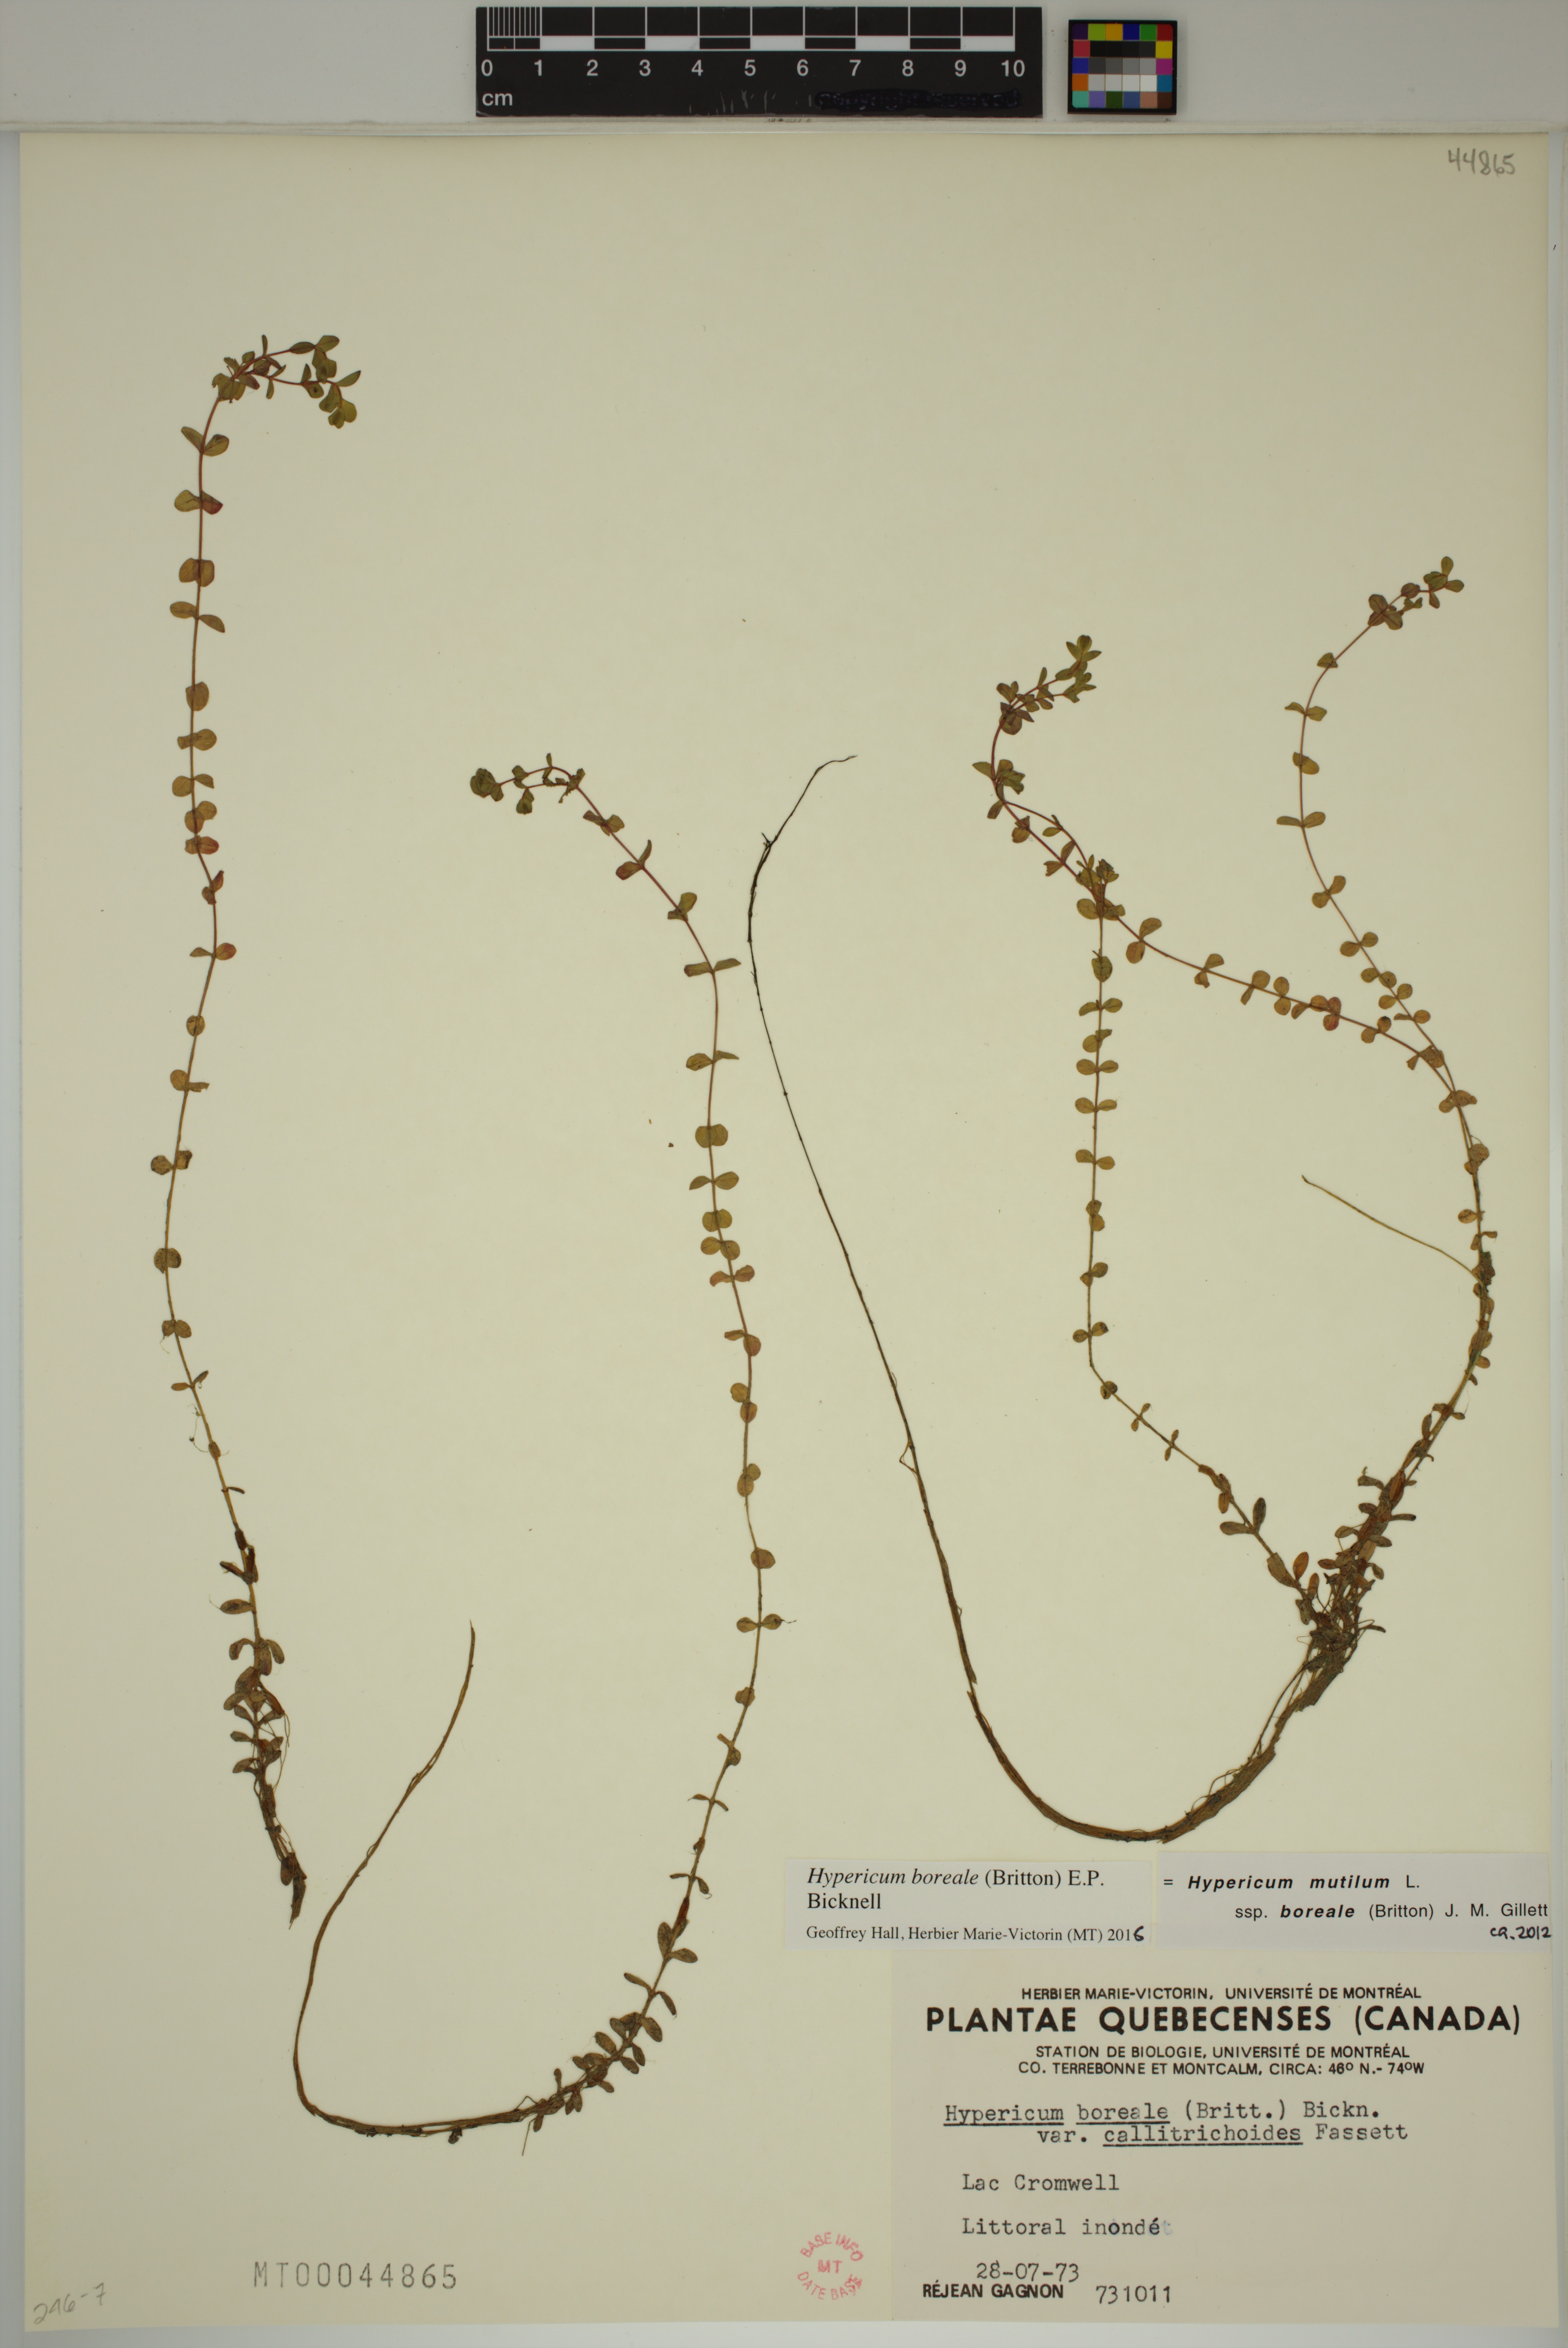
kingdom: Plantae
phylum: Tracheophyta
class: Magnoliopsida
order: Malpighiales
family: Hypericaceae
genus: Hypericum
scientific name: Hypericum boreale
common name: Northern bog st. john's-wort
